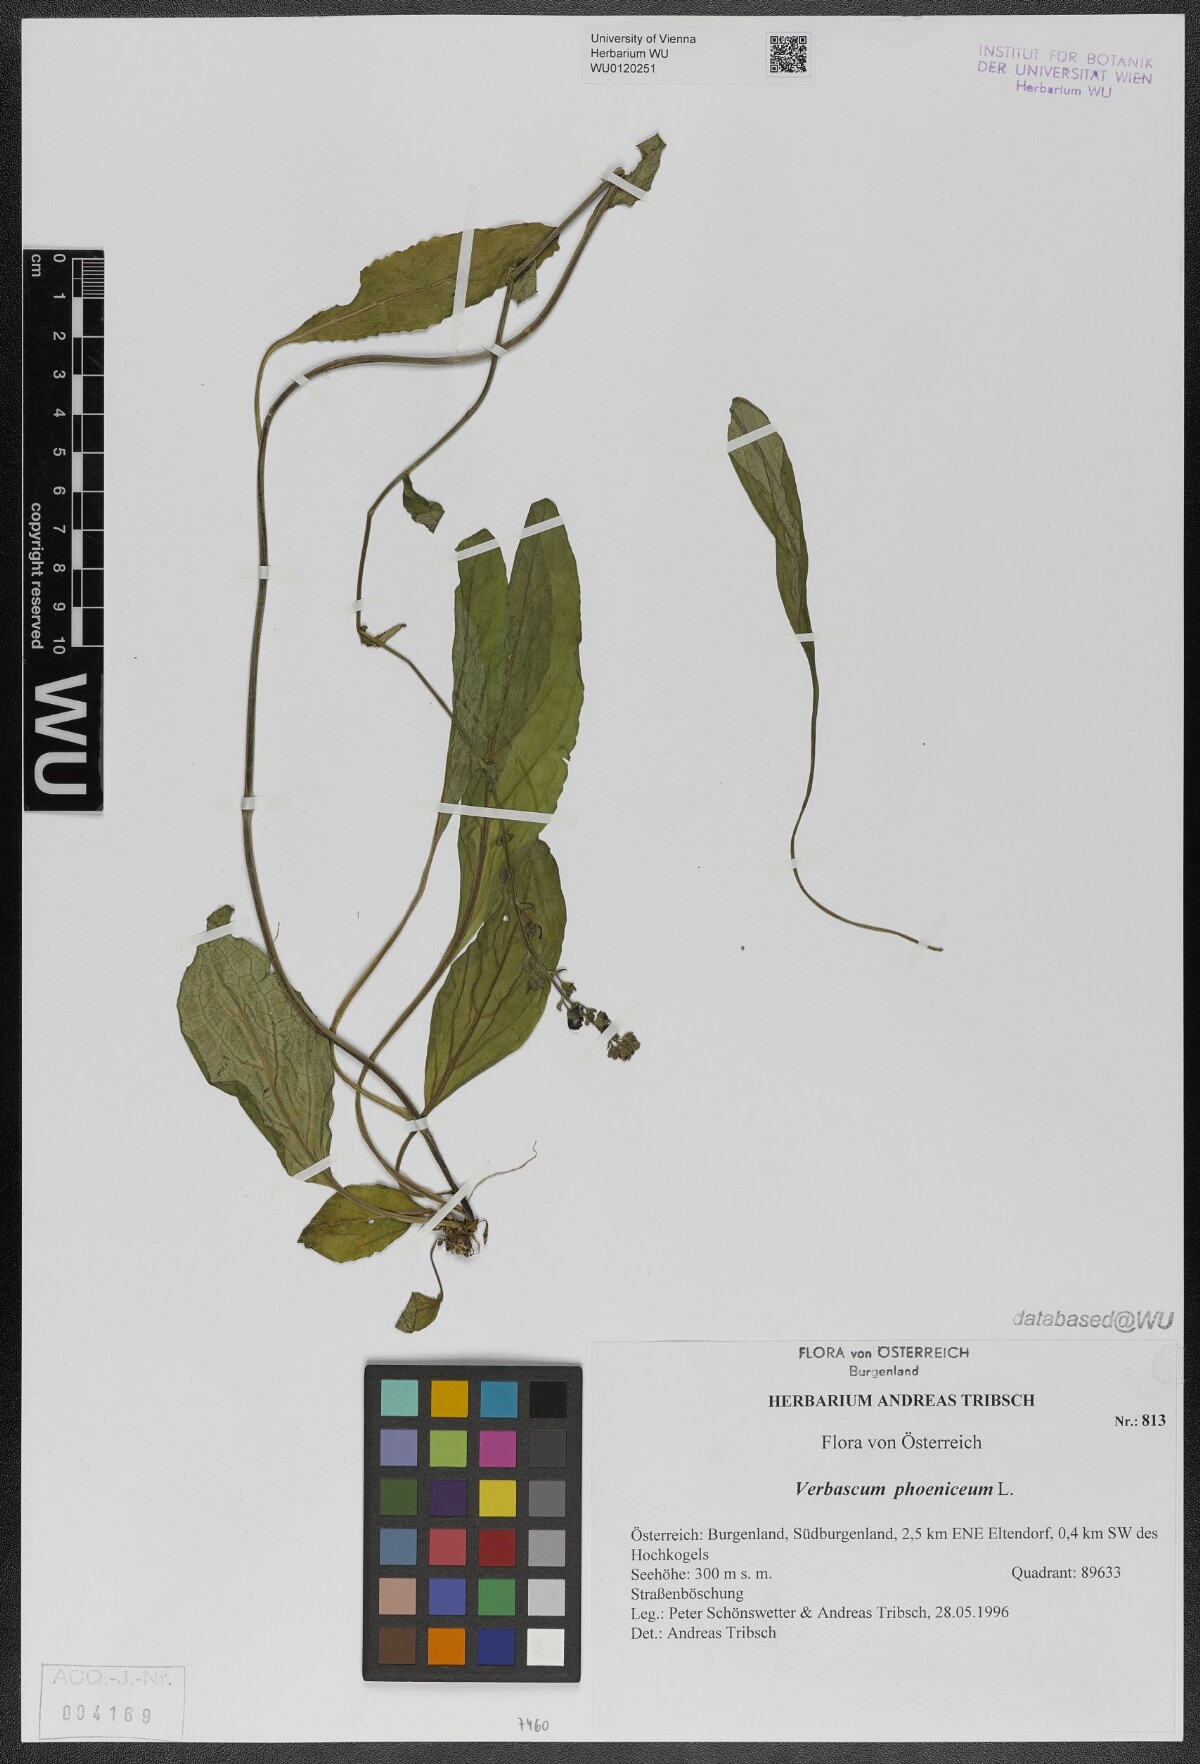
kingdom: Plantae
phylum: Tracheophyta
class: Magnoliopsida
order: Lamiales
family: Scrophulariaceae
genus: Verbascum
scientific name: Verbascum phoeniceum
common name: Purple mullein
